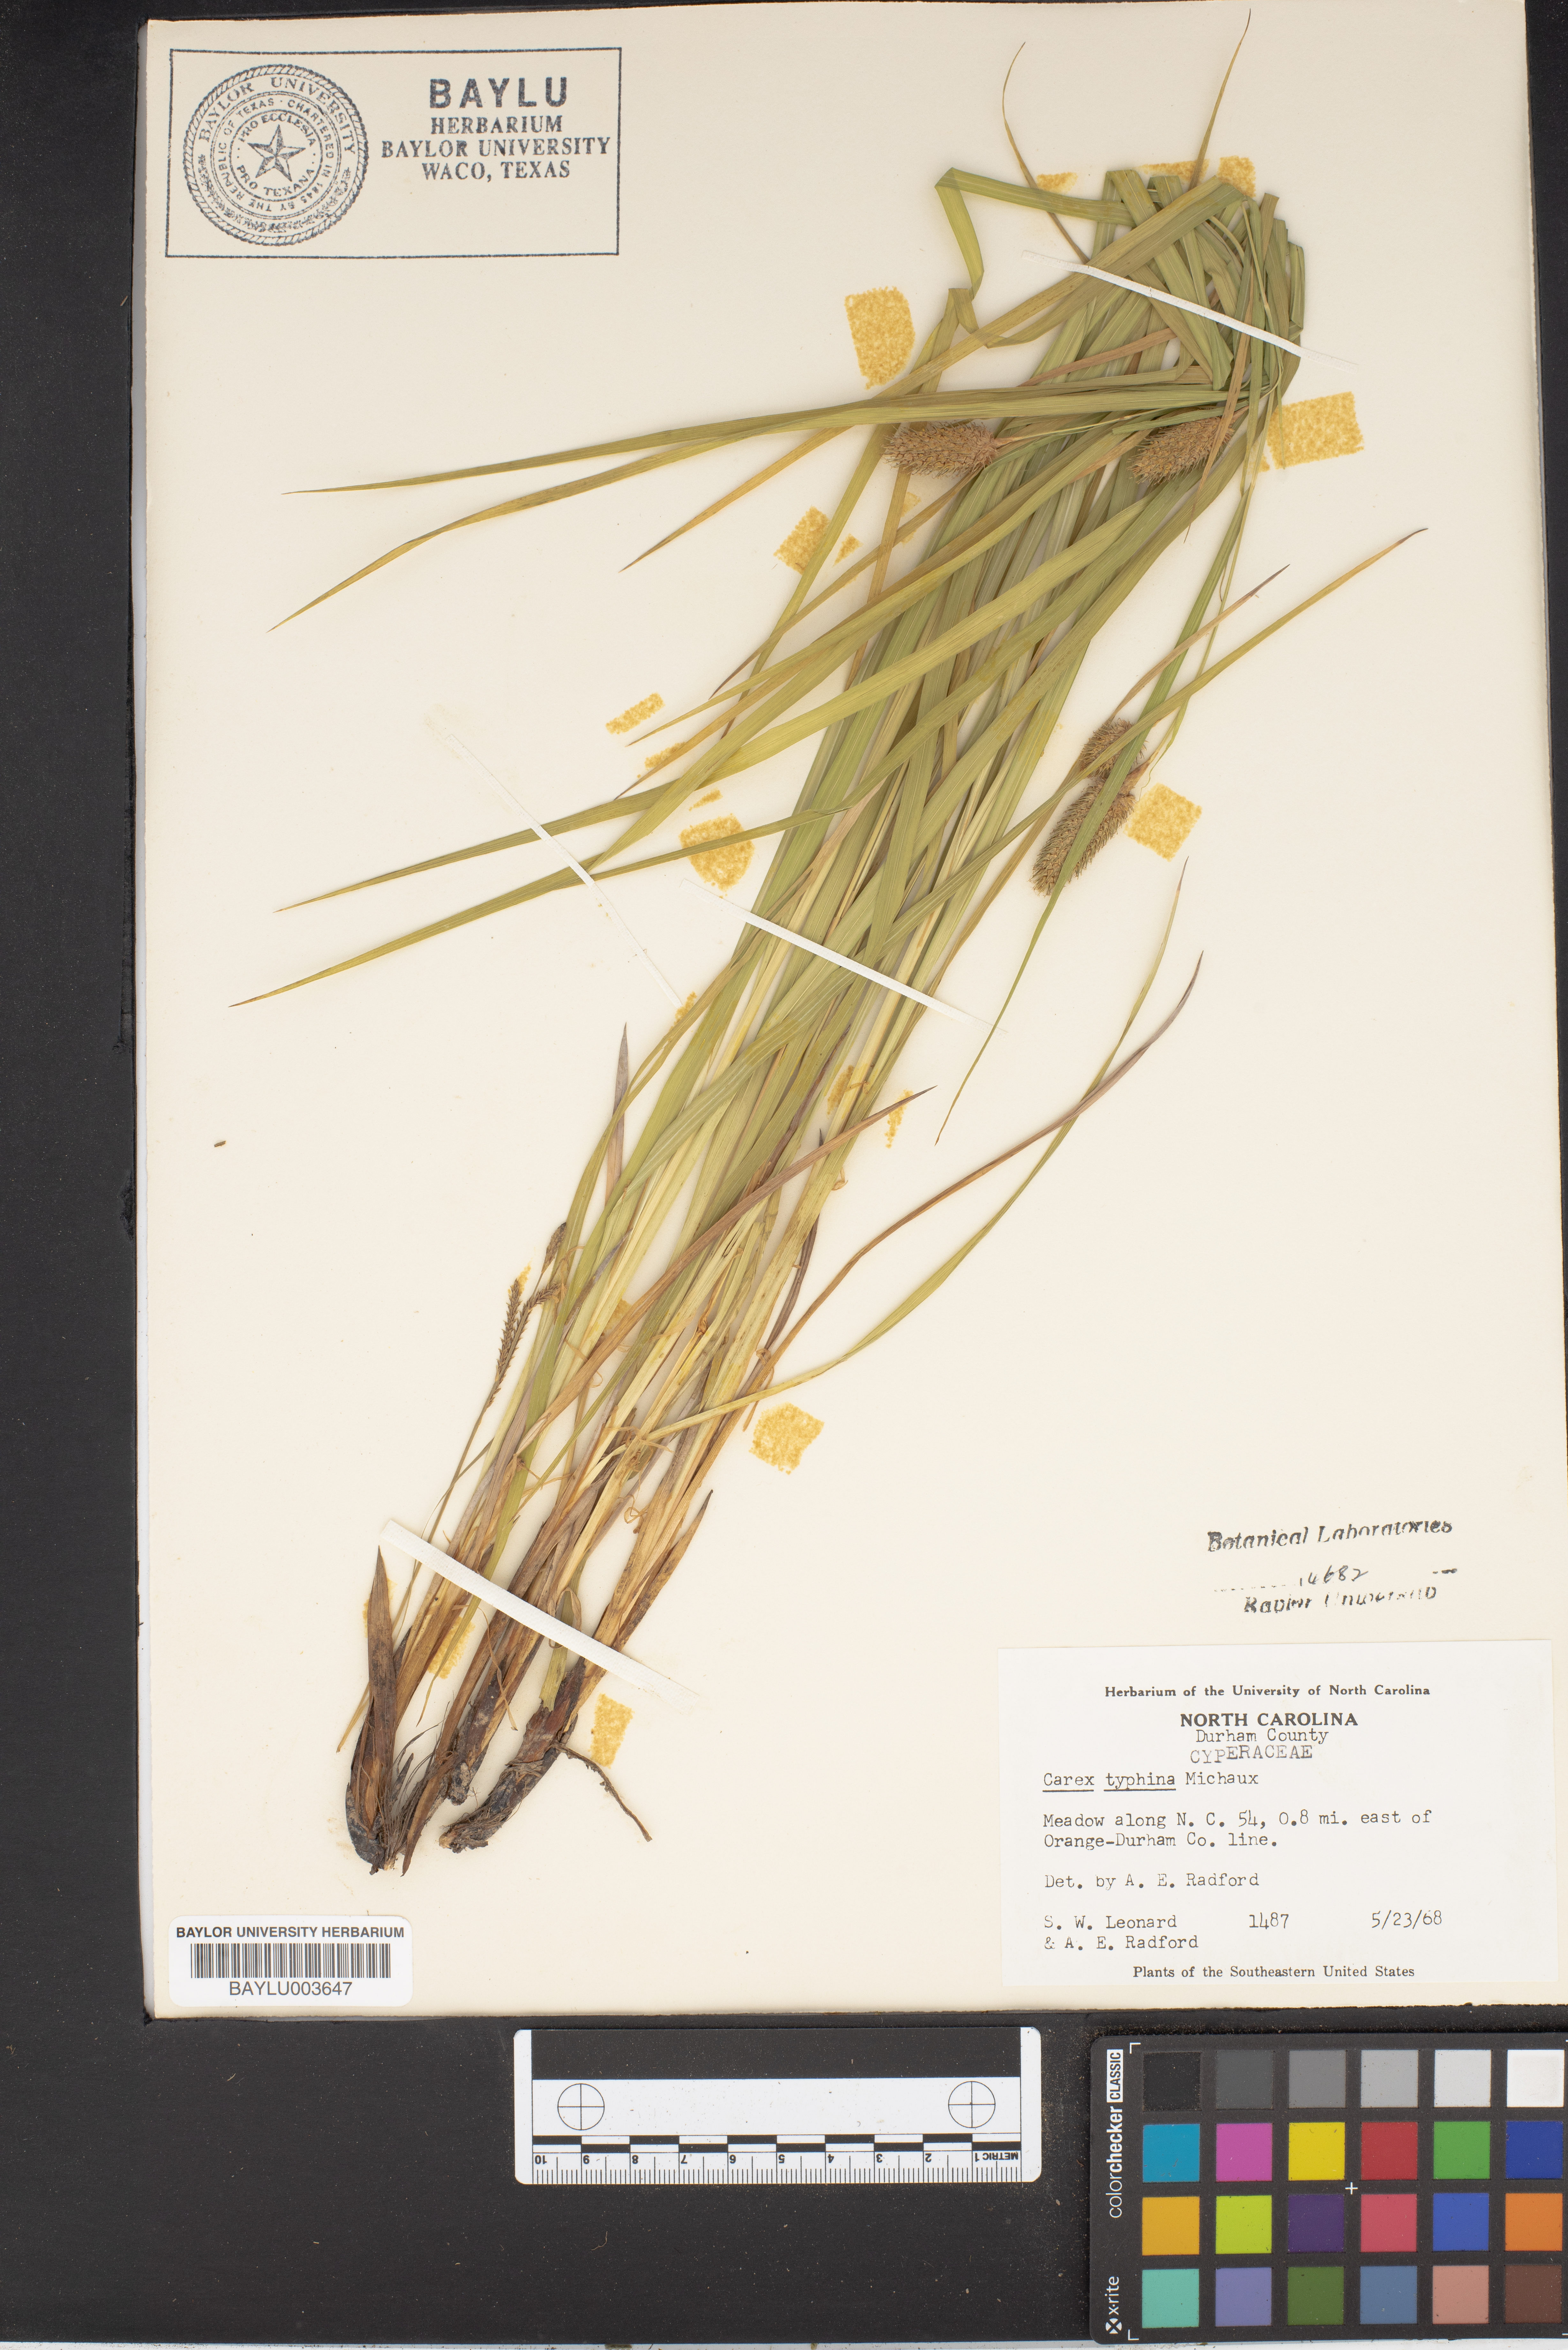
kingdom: Plantae
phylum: Tracheophyta
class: Liliopsida
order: Poales
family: Cyperaceae
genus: Carex
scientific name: Carex typhina
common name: Cattail sedge
